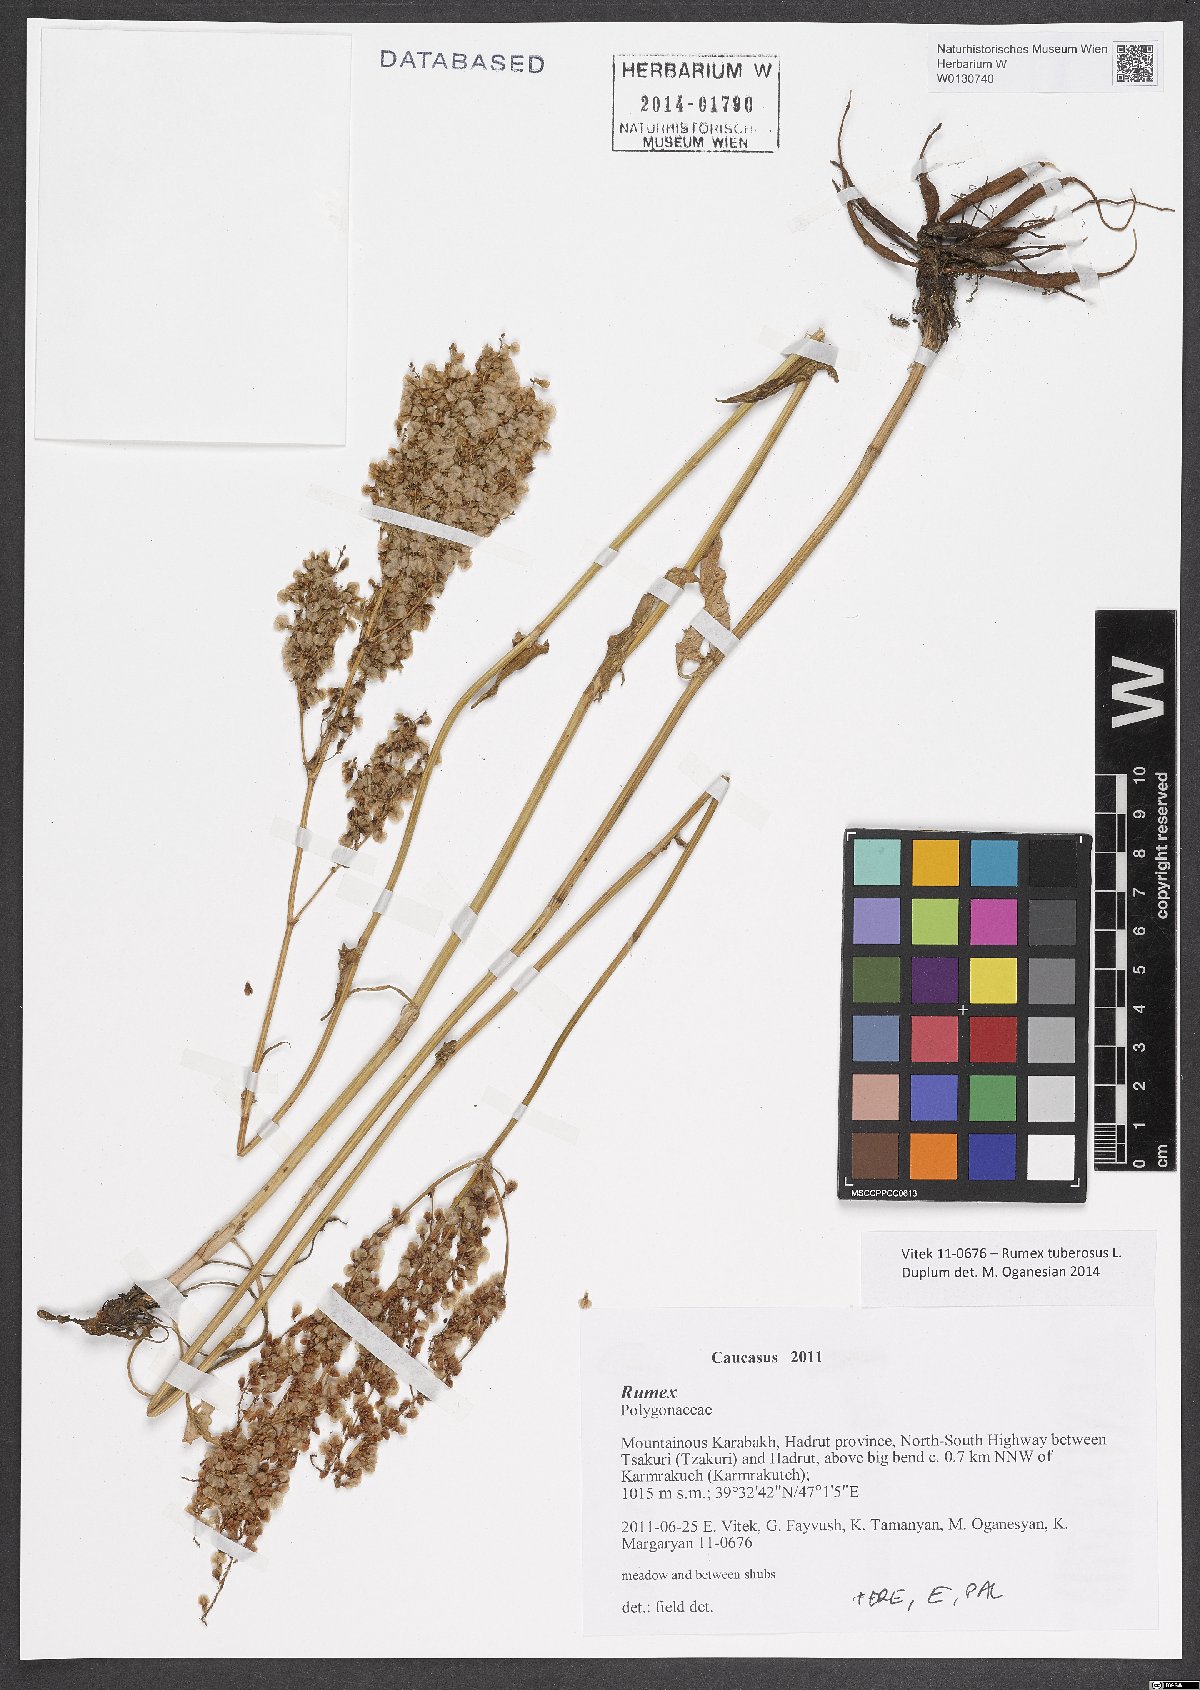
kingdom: Plantae
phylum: Tracheophyta
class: Magnoliopsida
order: Caryophyllales
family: Polygonaceae
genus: Rumex
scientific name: Rumex tuberosus
